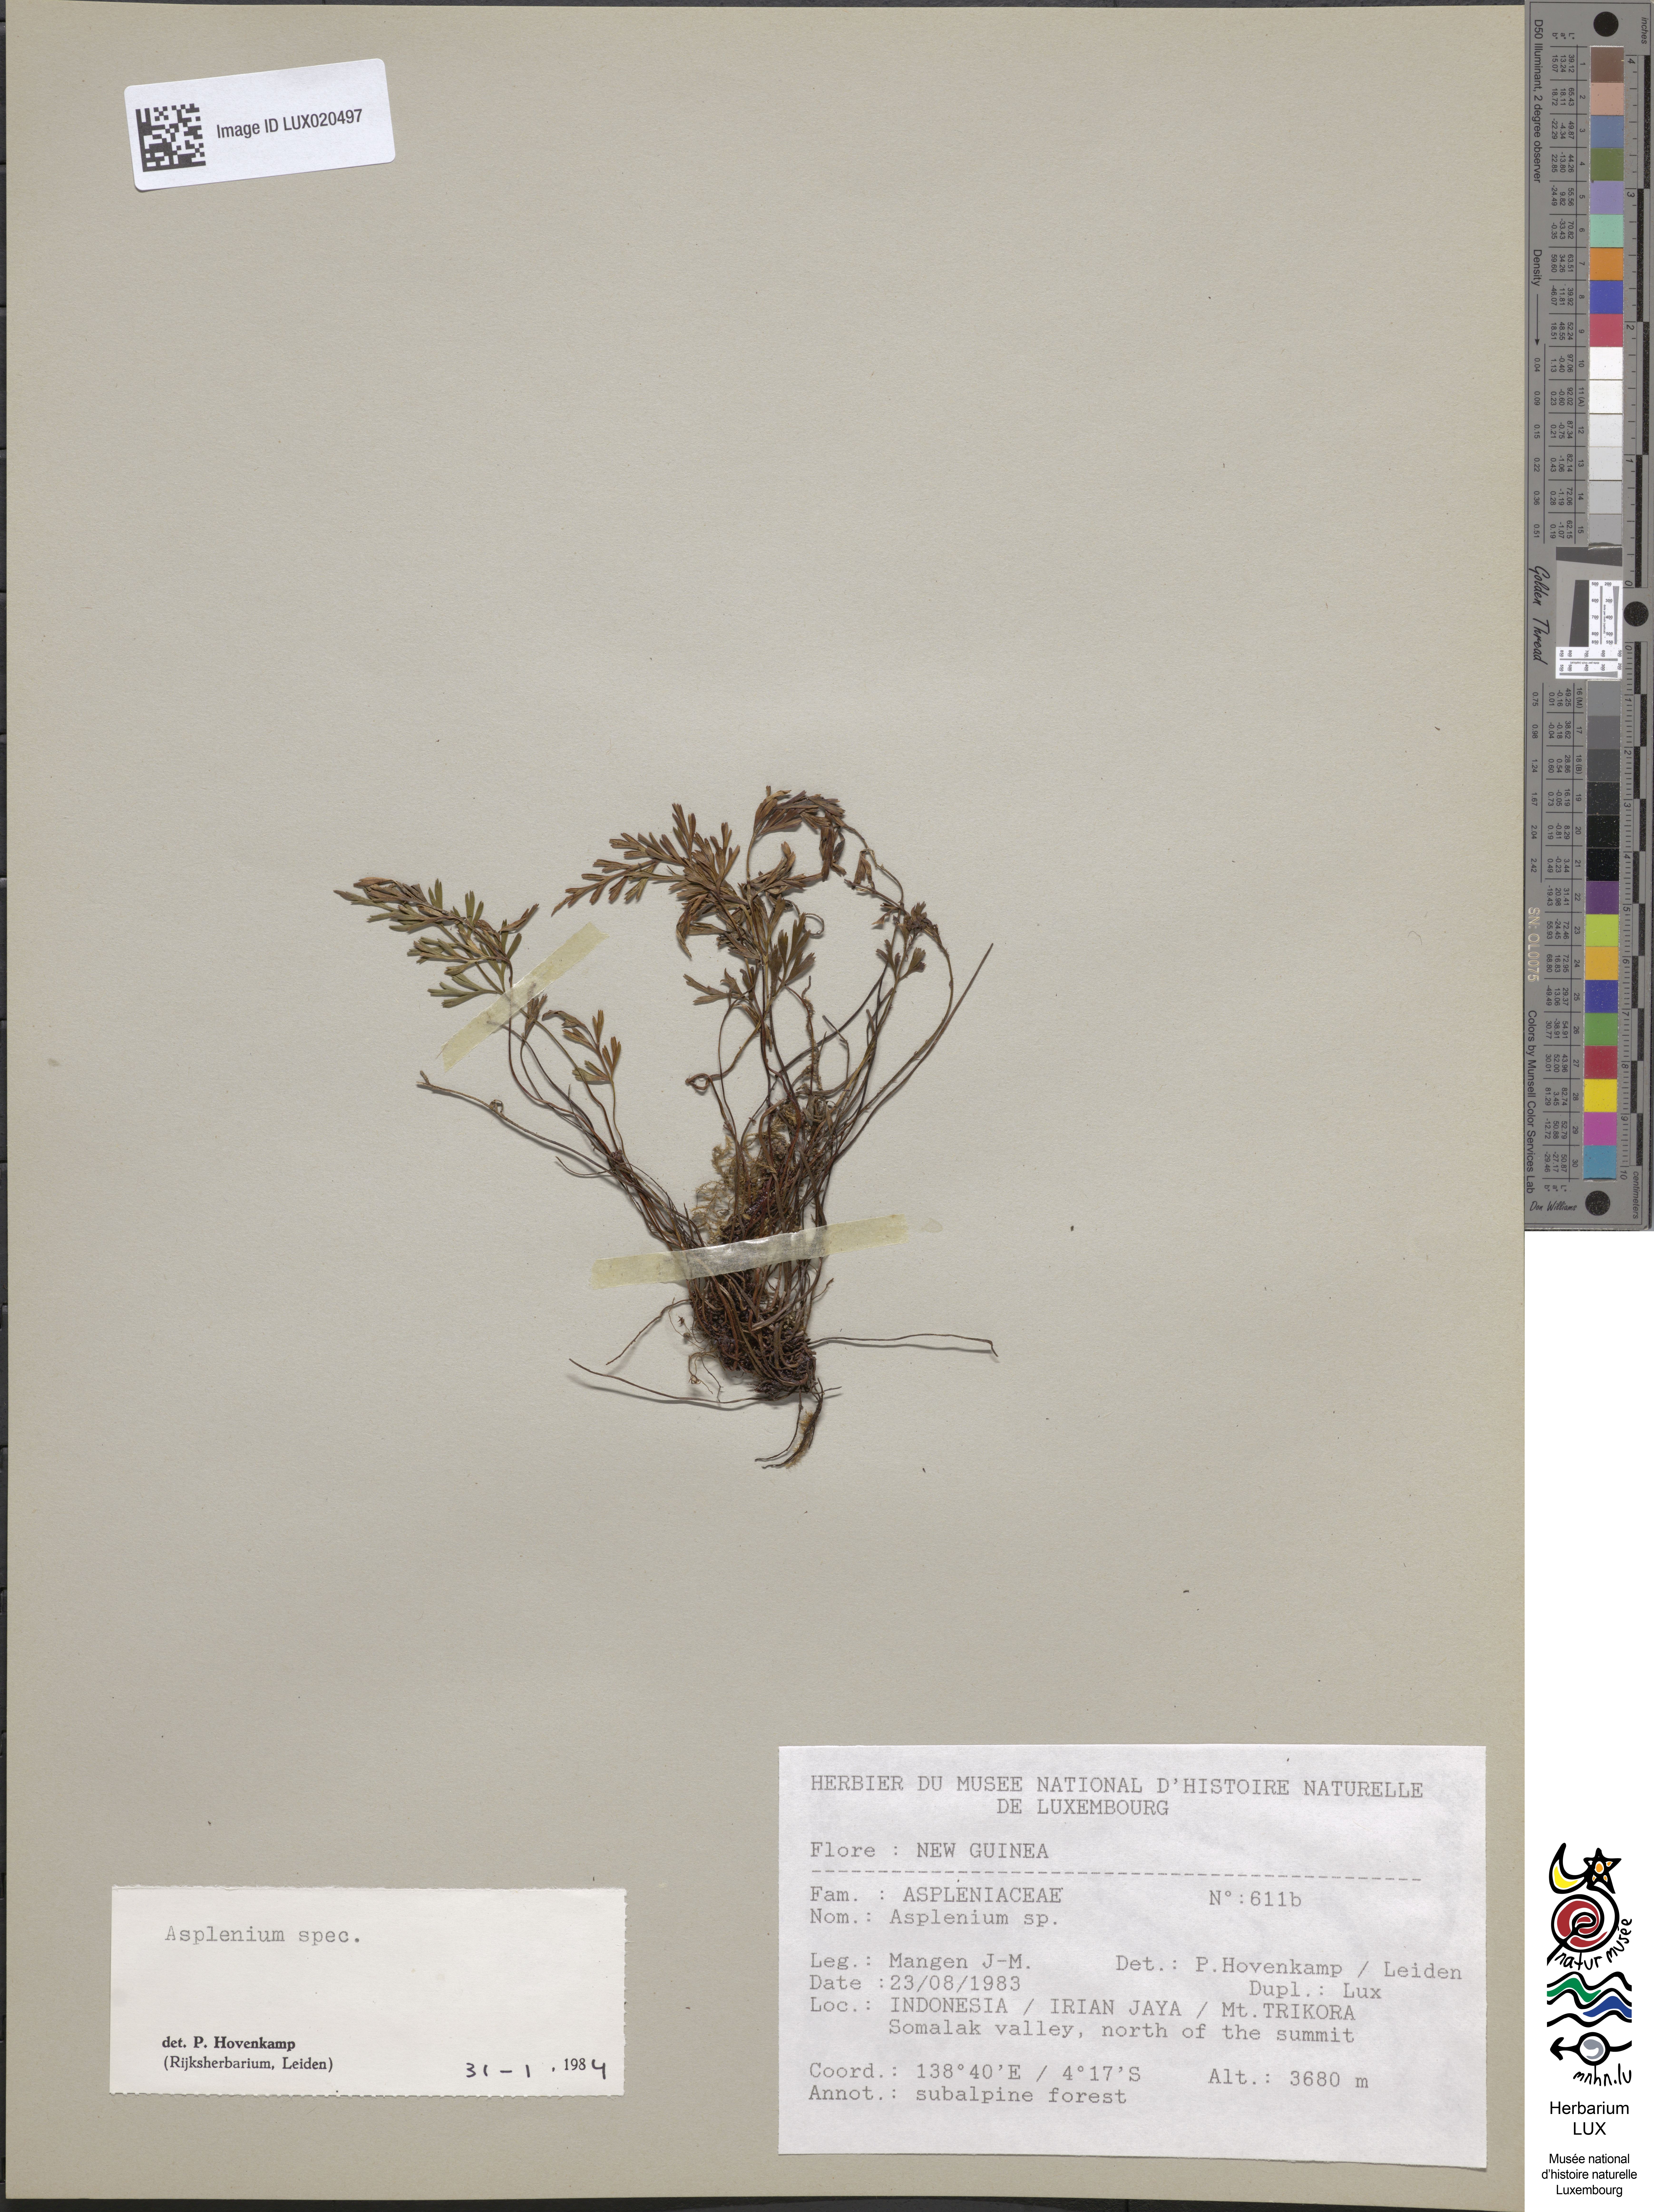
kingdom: Plantae
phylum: Tracheophyta
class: Polypodiopsida
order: Polypodiales
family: Aspleniaceae
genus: Asplenium
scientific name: Asplenium
